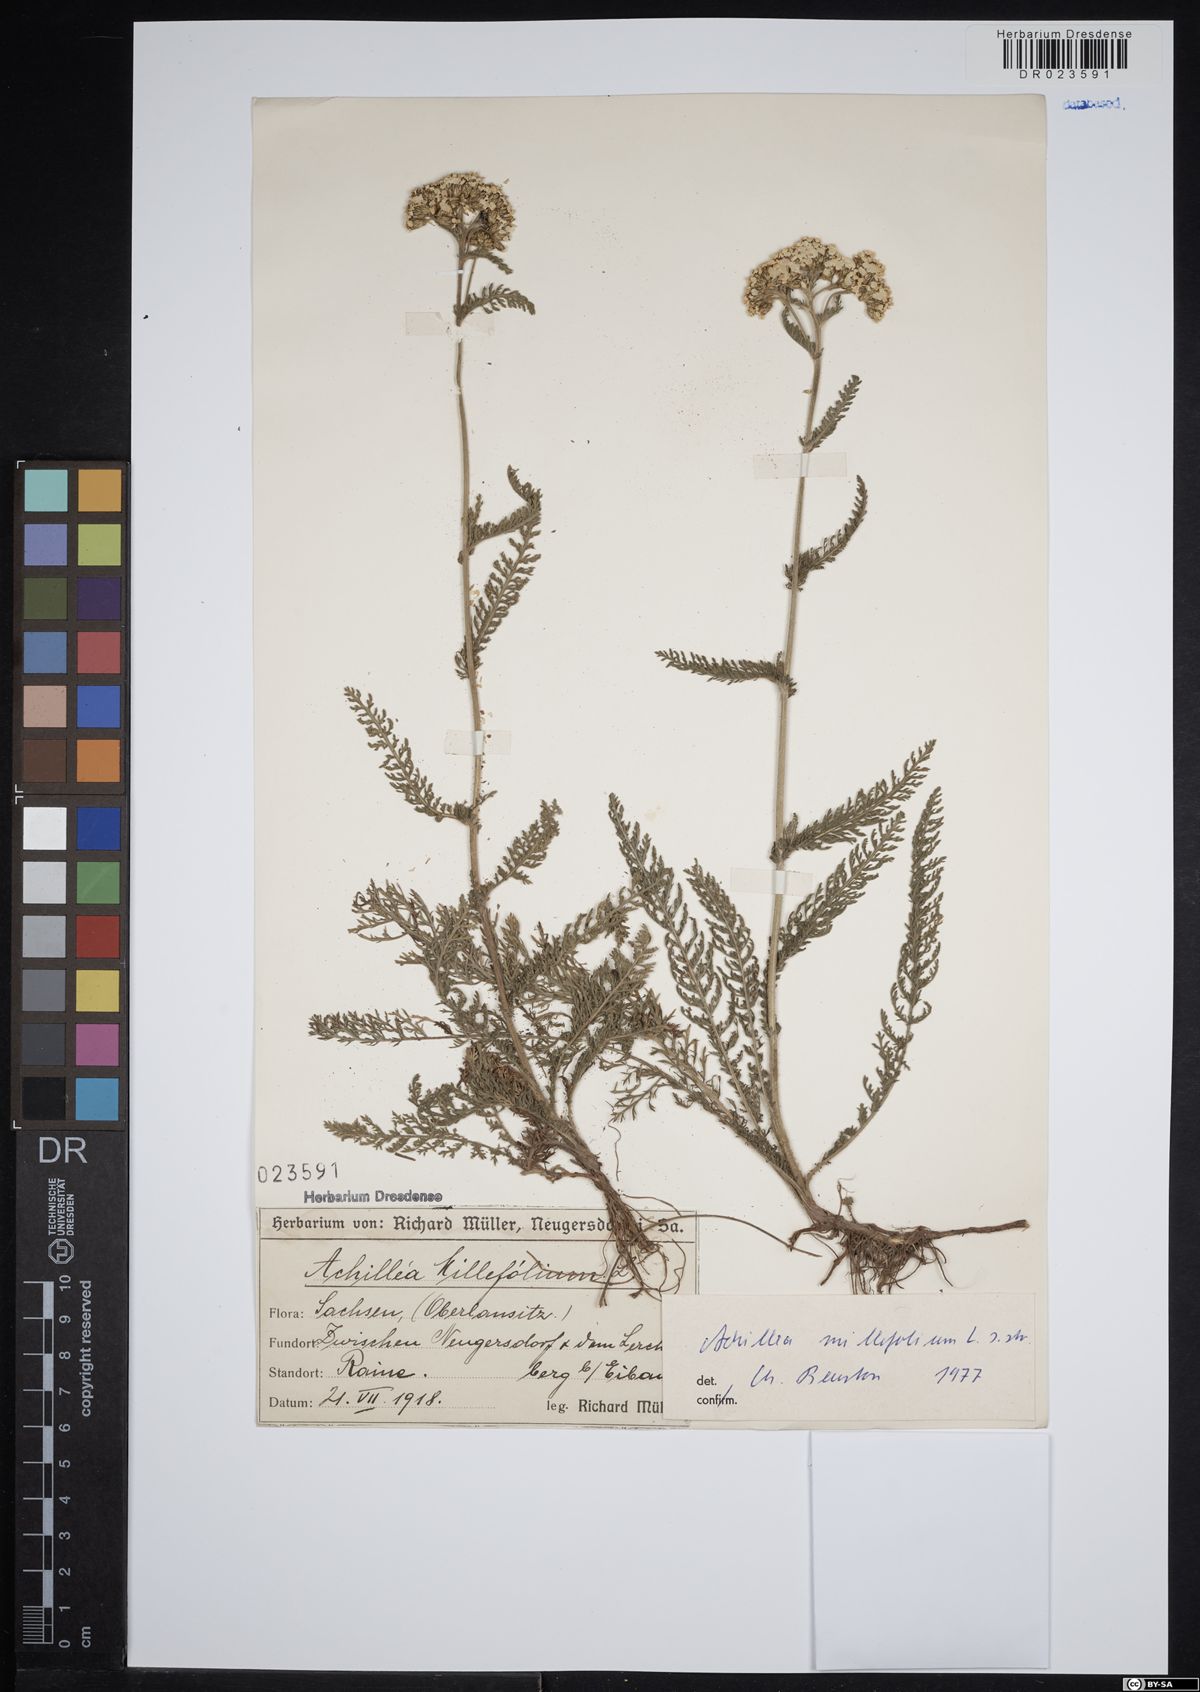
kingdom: Plantae
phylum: Tracheophyta
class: Magnoliopsida
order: Asterales
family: Asteraceae
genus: Achillea
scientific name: Achillea millefolium
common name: Yarrow
